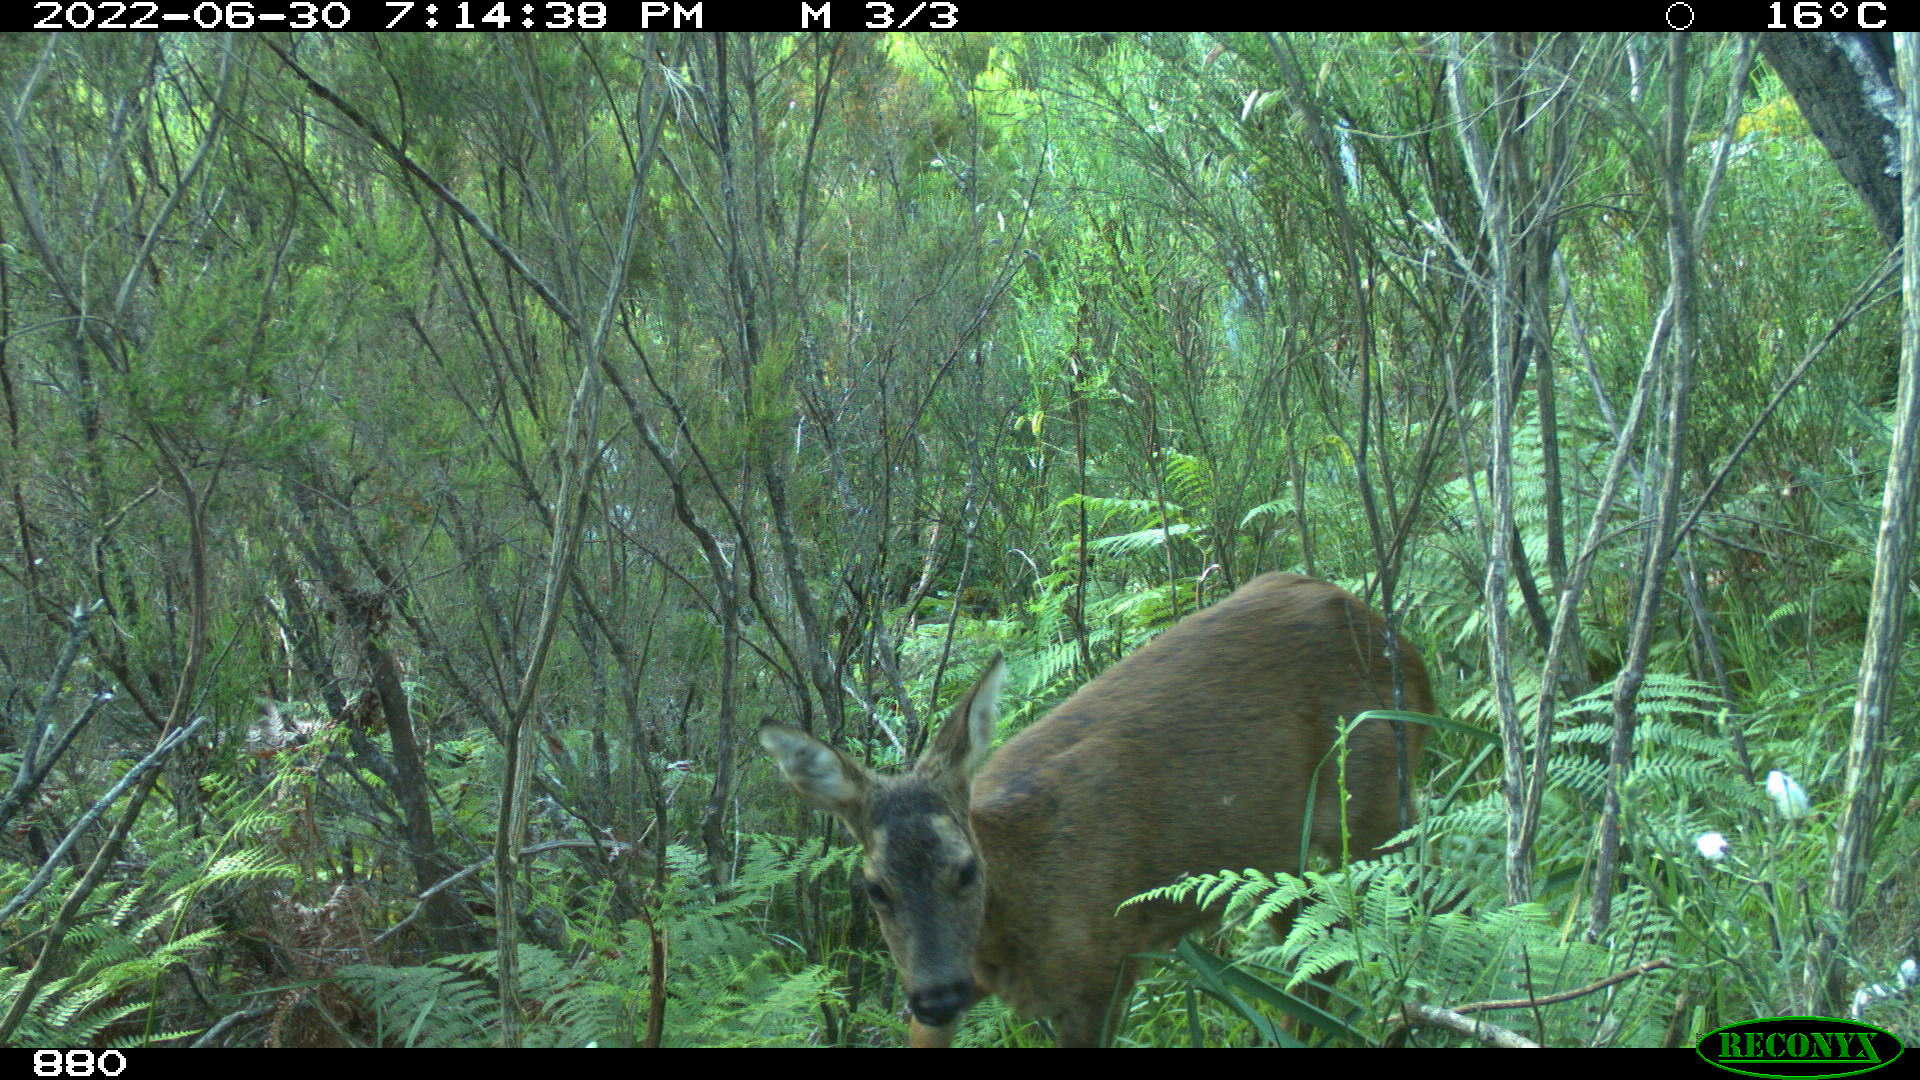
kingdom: Animalia
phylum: Chordata
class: Mammalia
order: Artiodactyla
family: Cervidae
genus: Capreolus
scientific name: Capreolus capreolus
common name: Western roe deer
